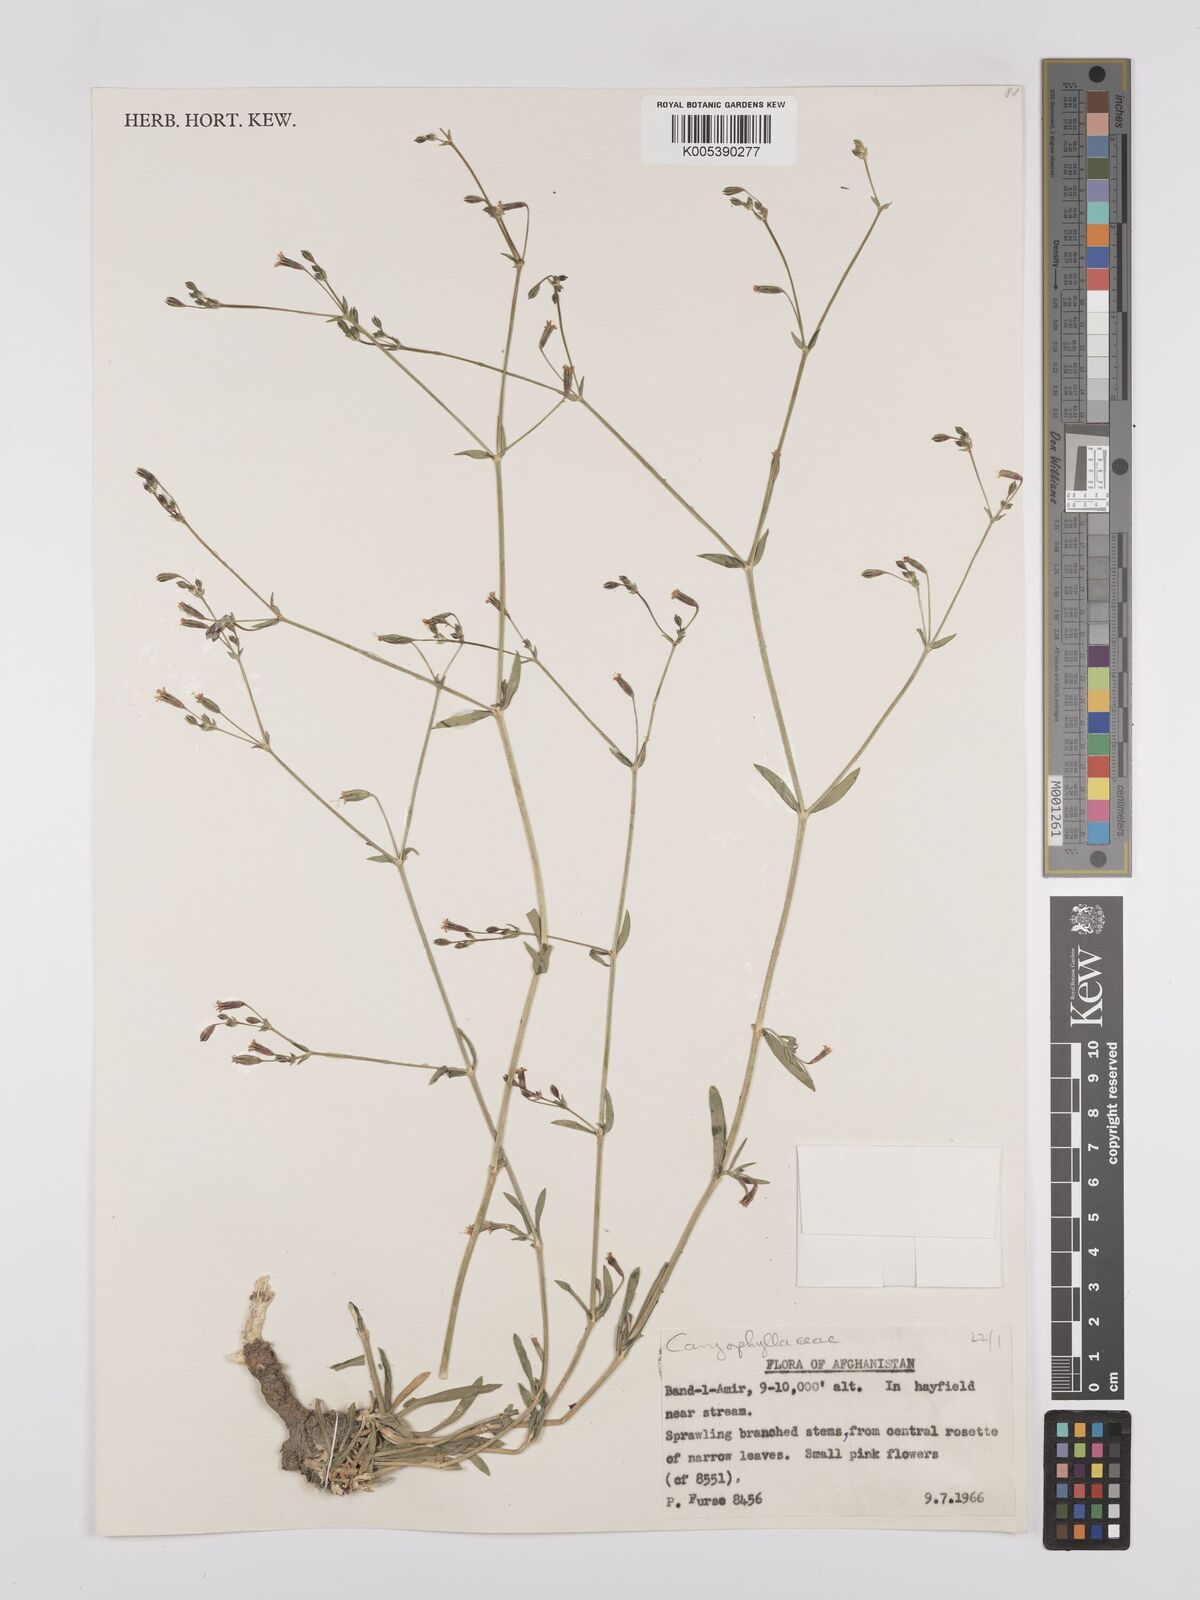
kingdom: Plantae
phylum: Tracheophyta
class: Magnoliopsida
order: Caryophyllales
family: Caryophyllaceae
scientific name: Caryophyllaceae
